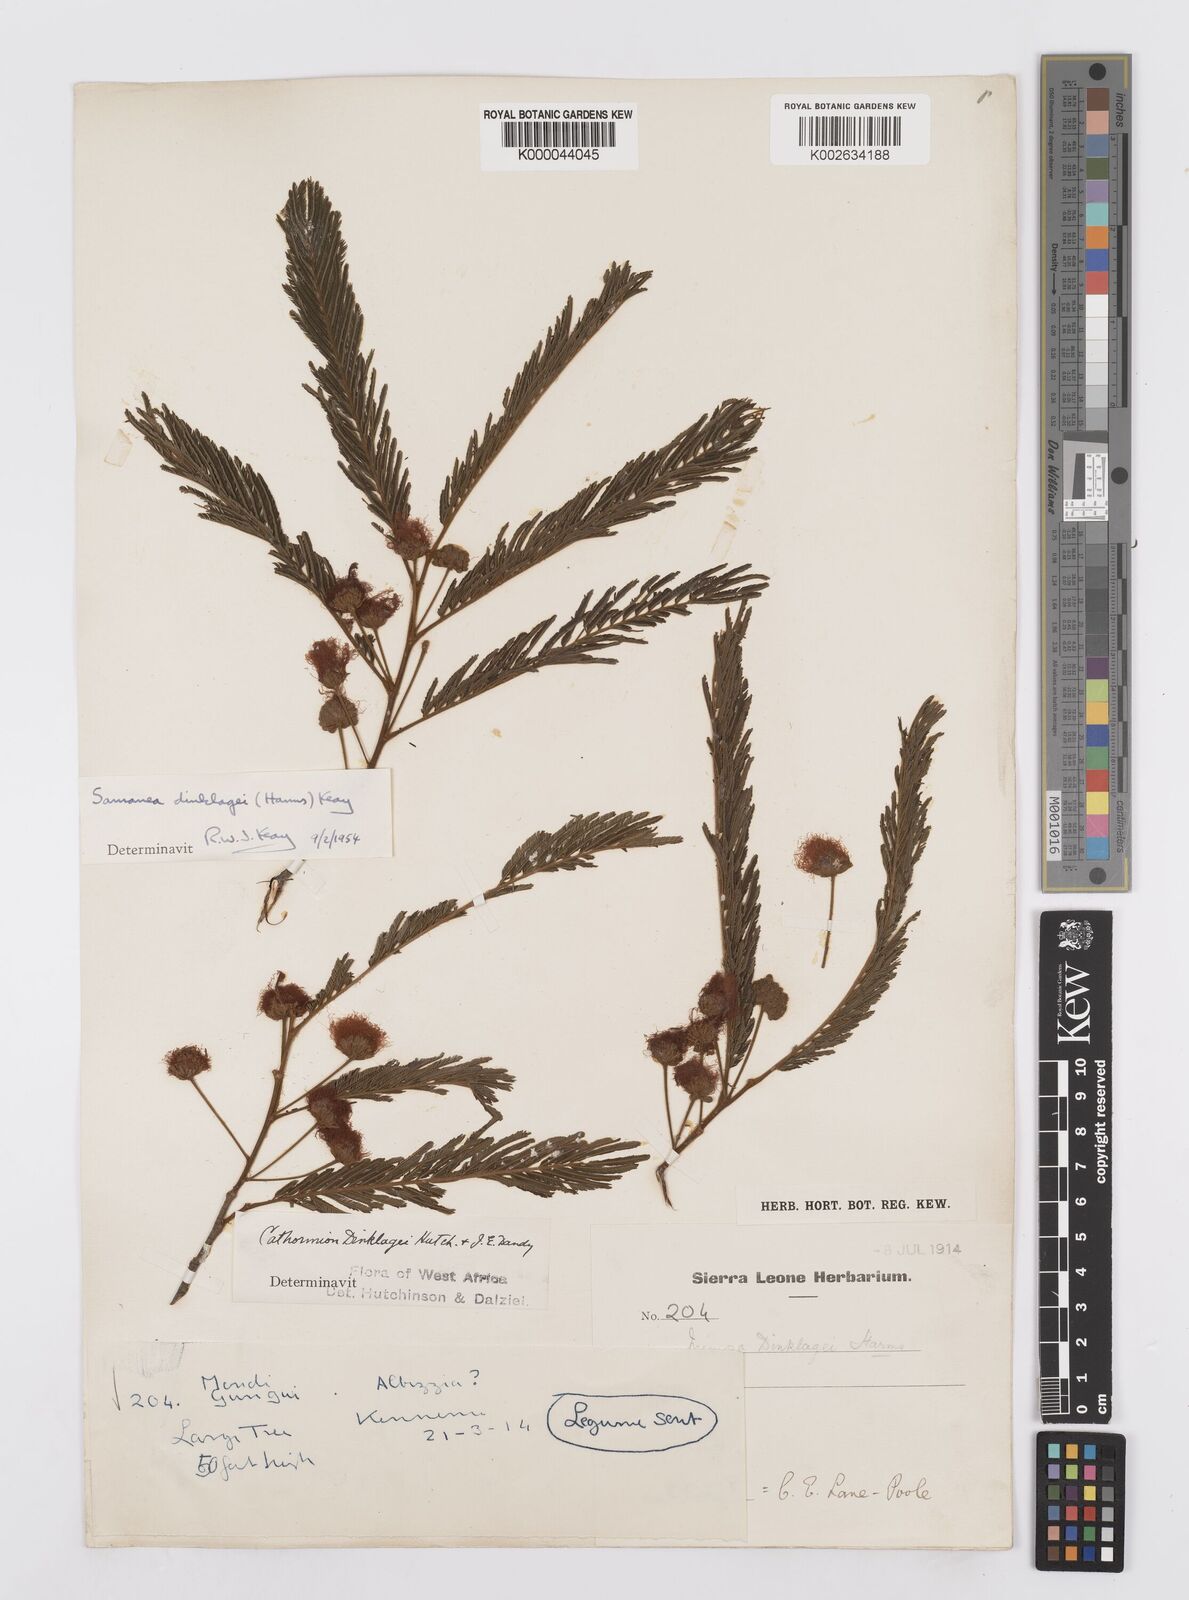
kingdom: Plantae
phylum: Tracheophyta
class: Magnoliopsida
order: Fabales
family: Fabaceae
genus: Albizia
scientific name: Albizia dinklagei
